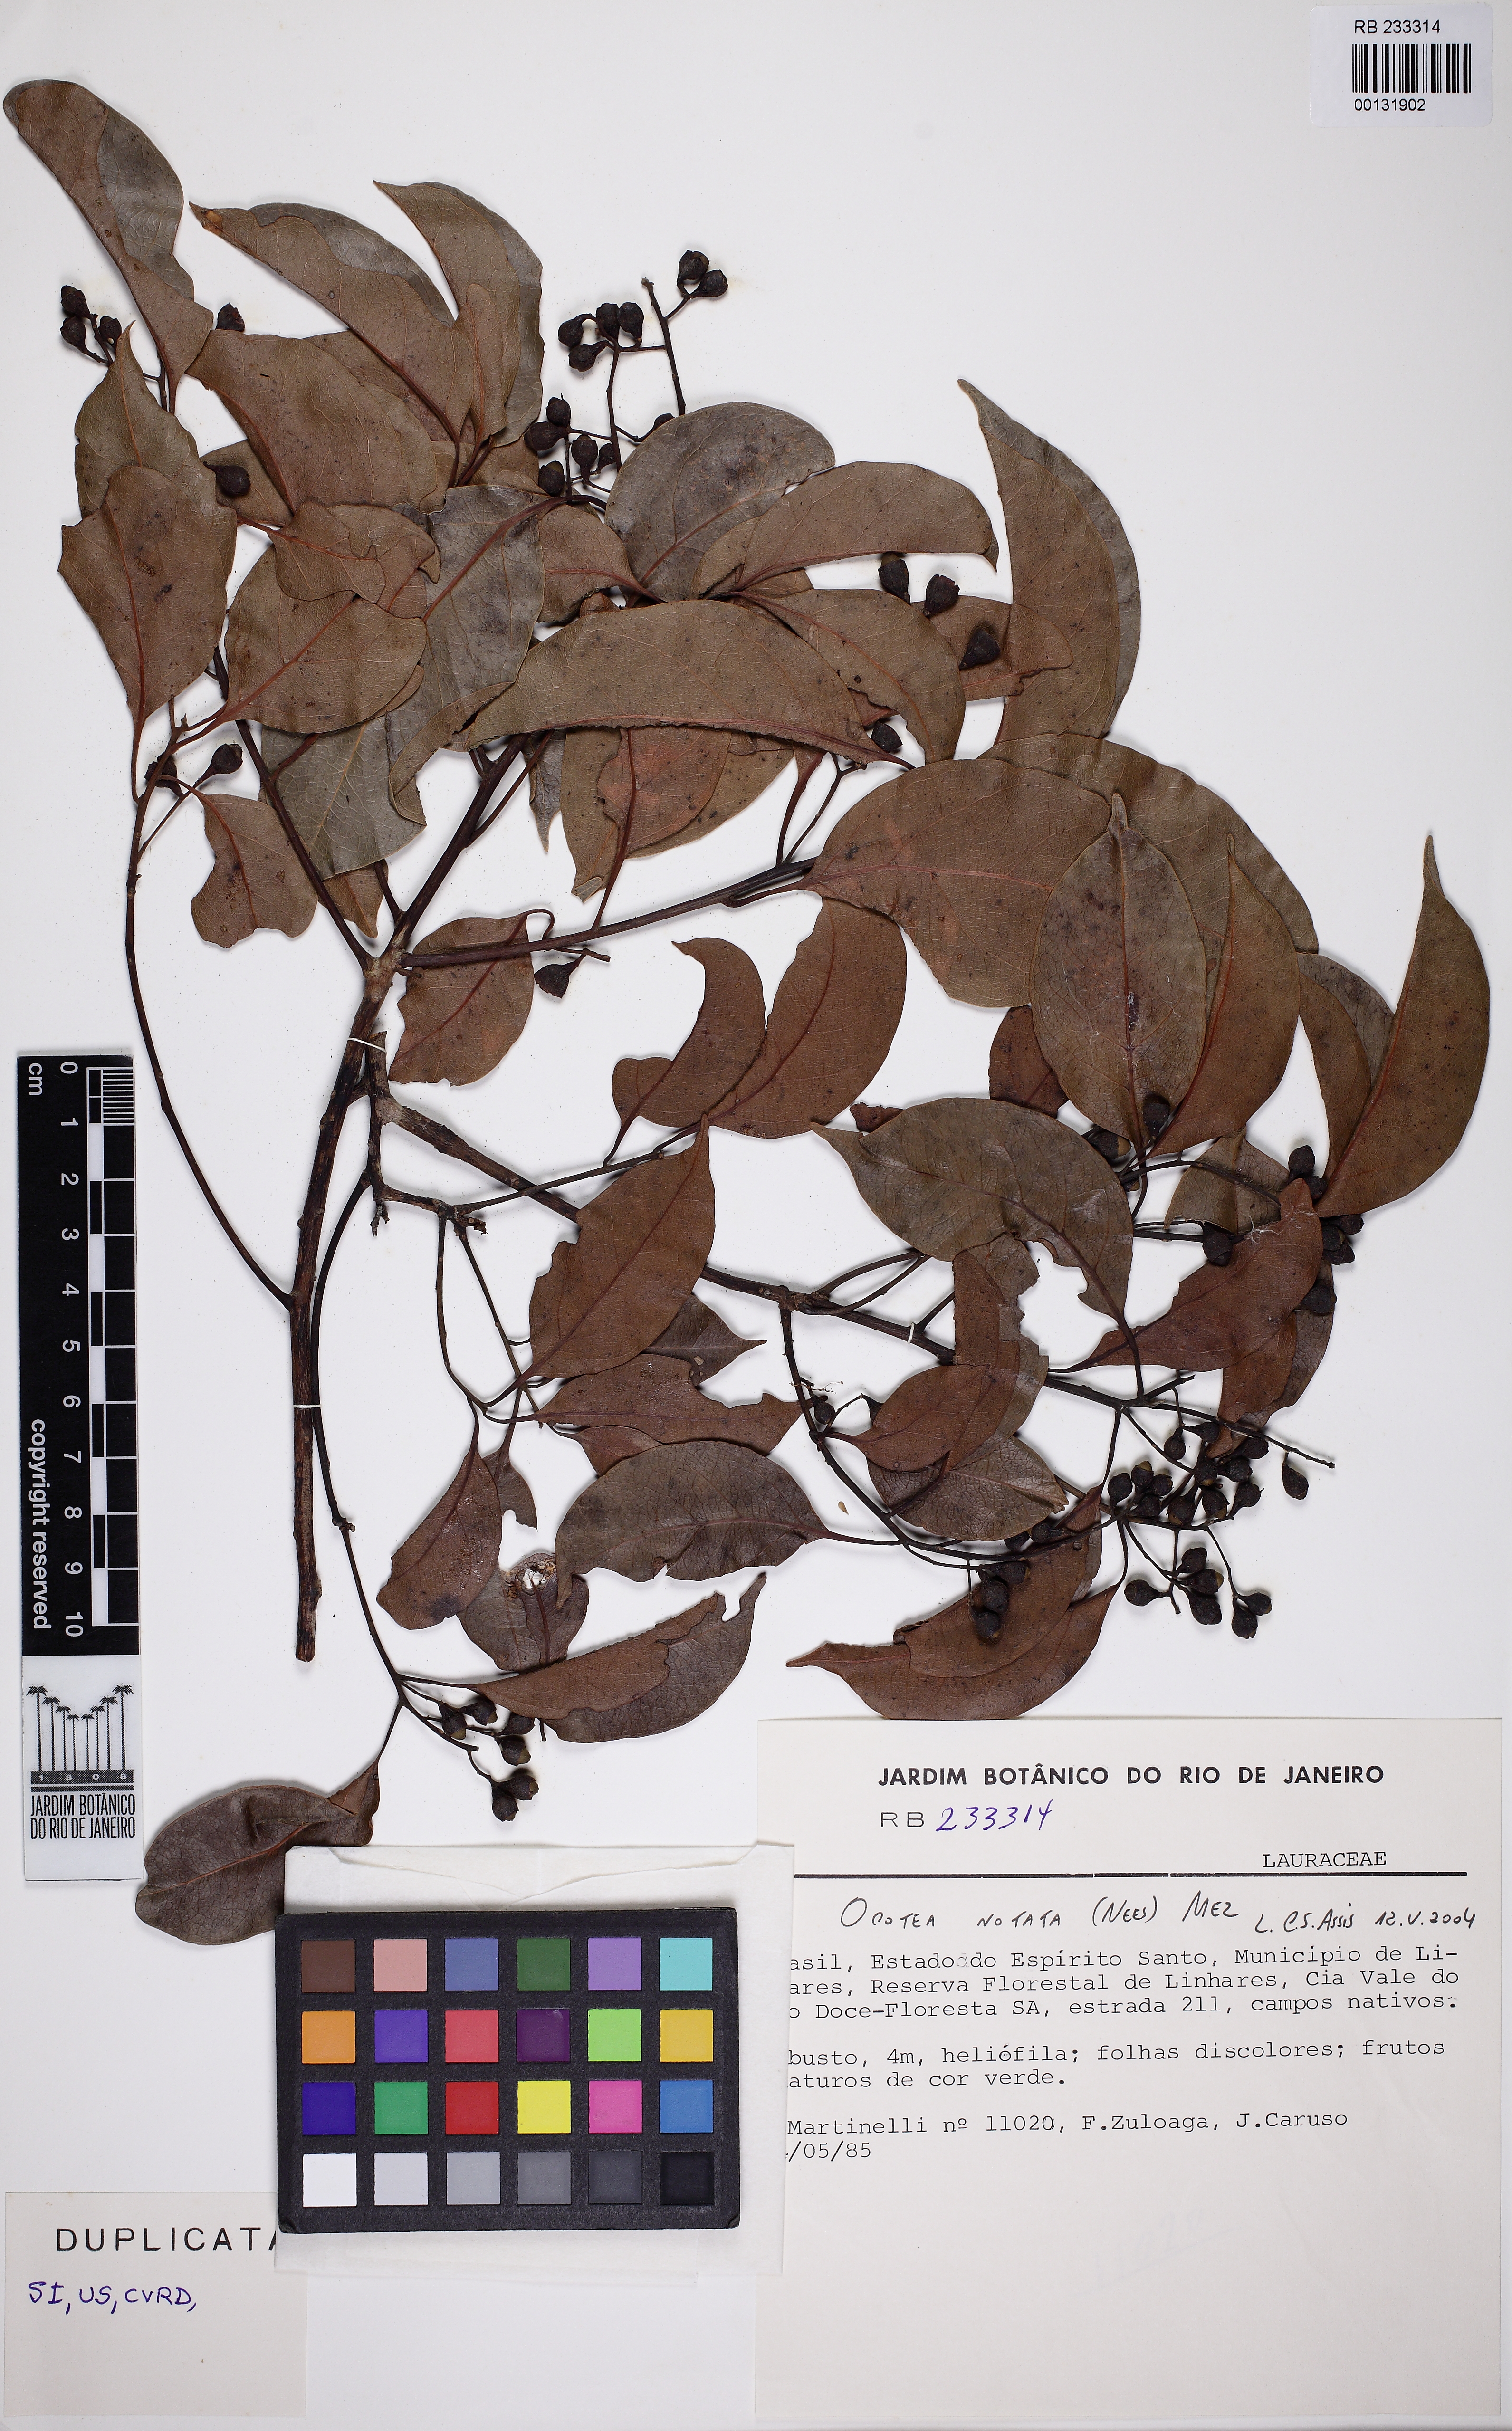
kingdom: Plantae
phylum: Tracheophyta
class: Magnoliopsida
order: Laurales
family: Lauraceae
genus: Mespilodaphne
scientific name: Mespilodaphne notata
